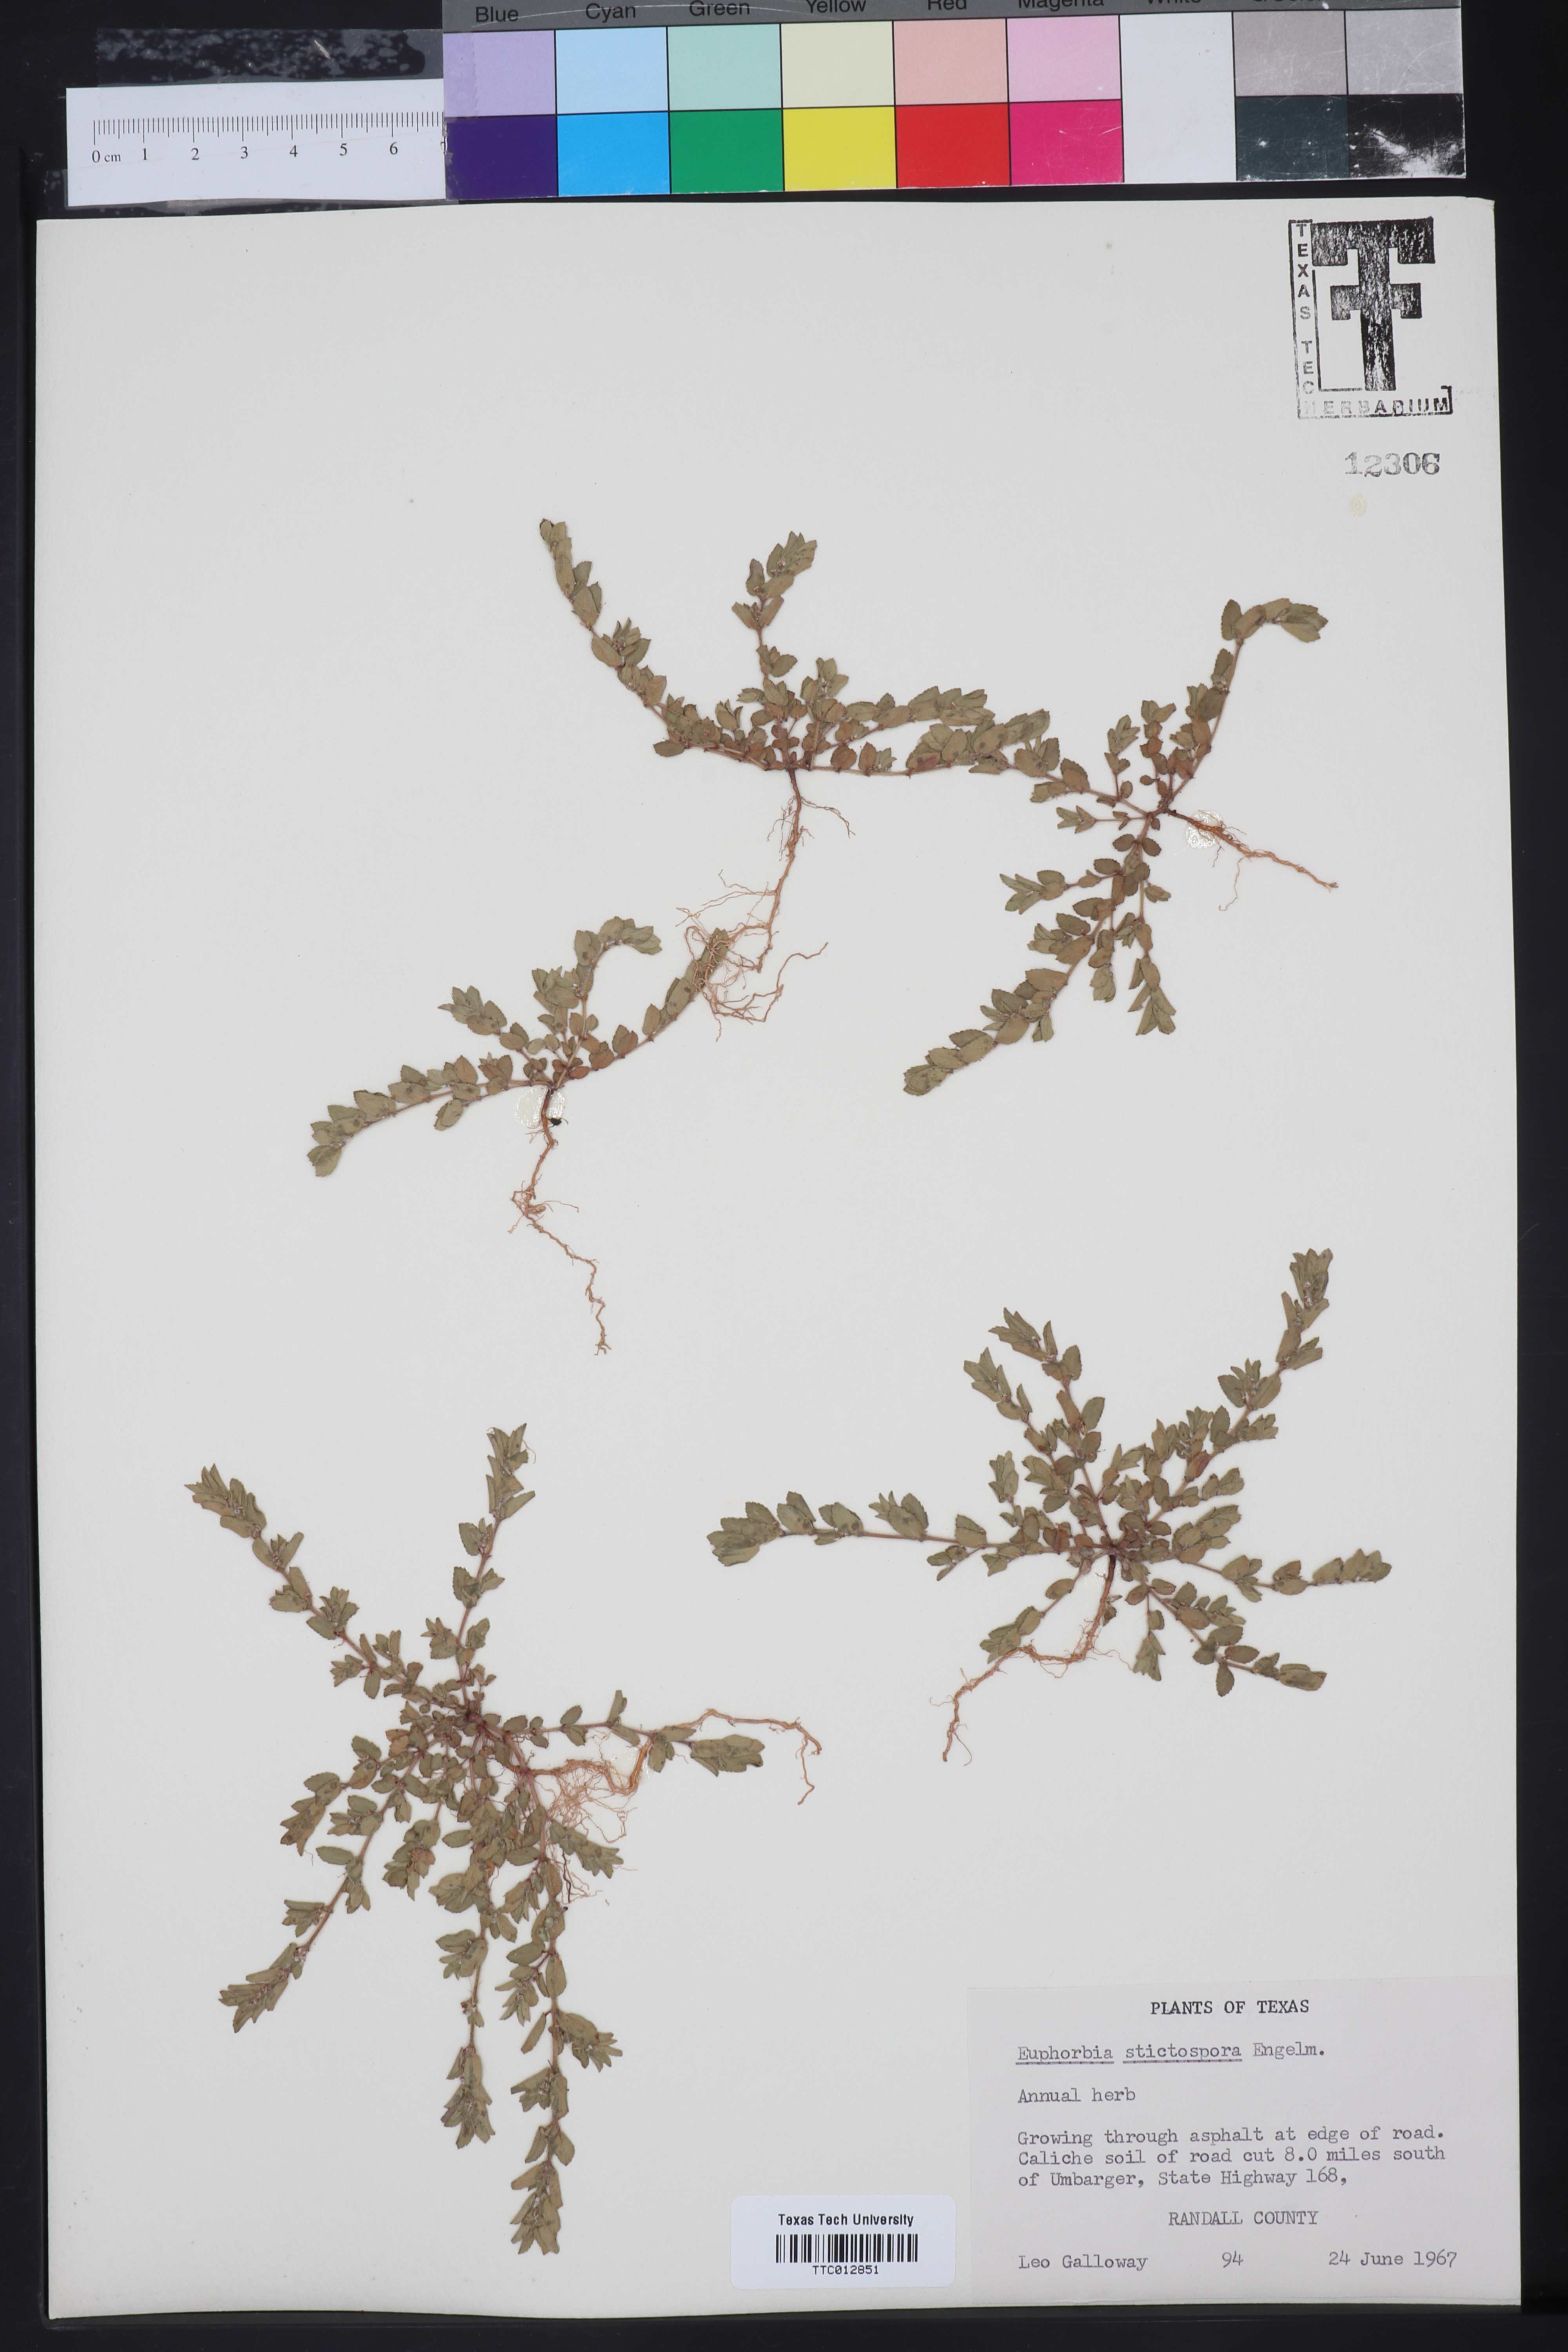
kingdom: Plantae
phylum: Tracheophyta
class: Magnoliopsida
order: Malpighiales
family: Euphorbiaceae
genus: Euphorbia
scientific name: Euphorbia stictospora
